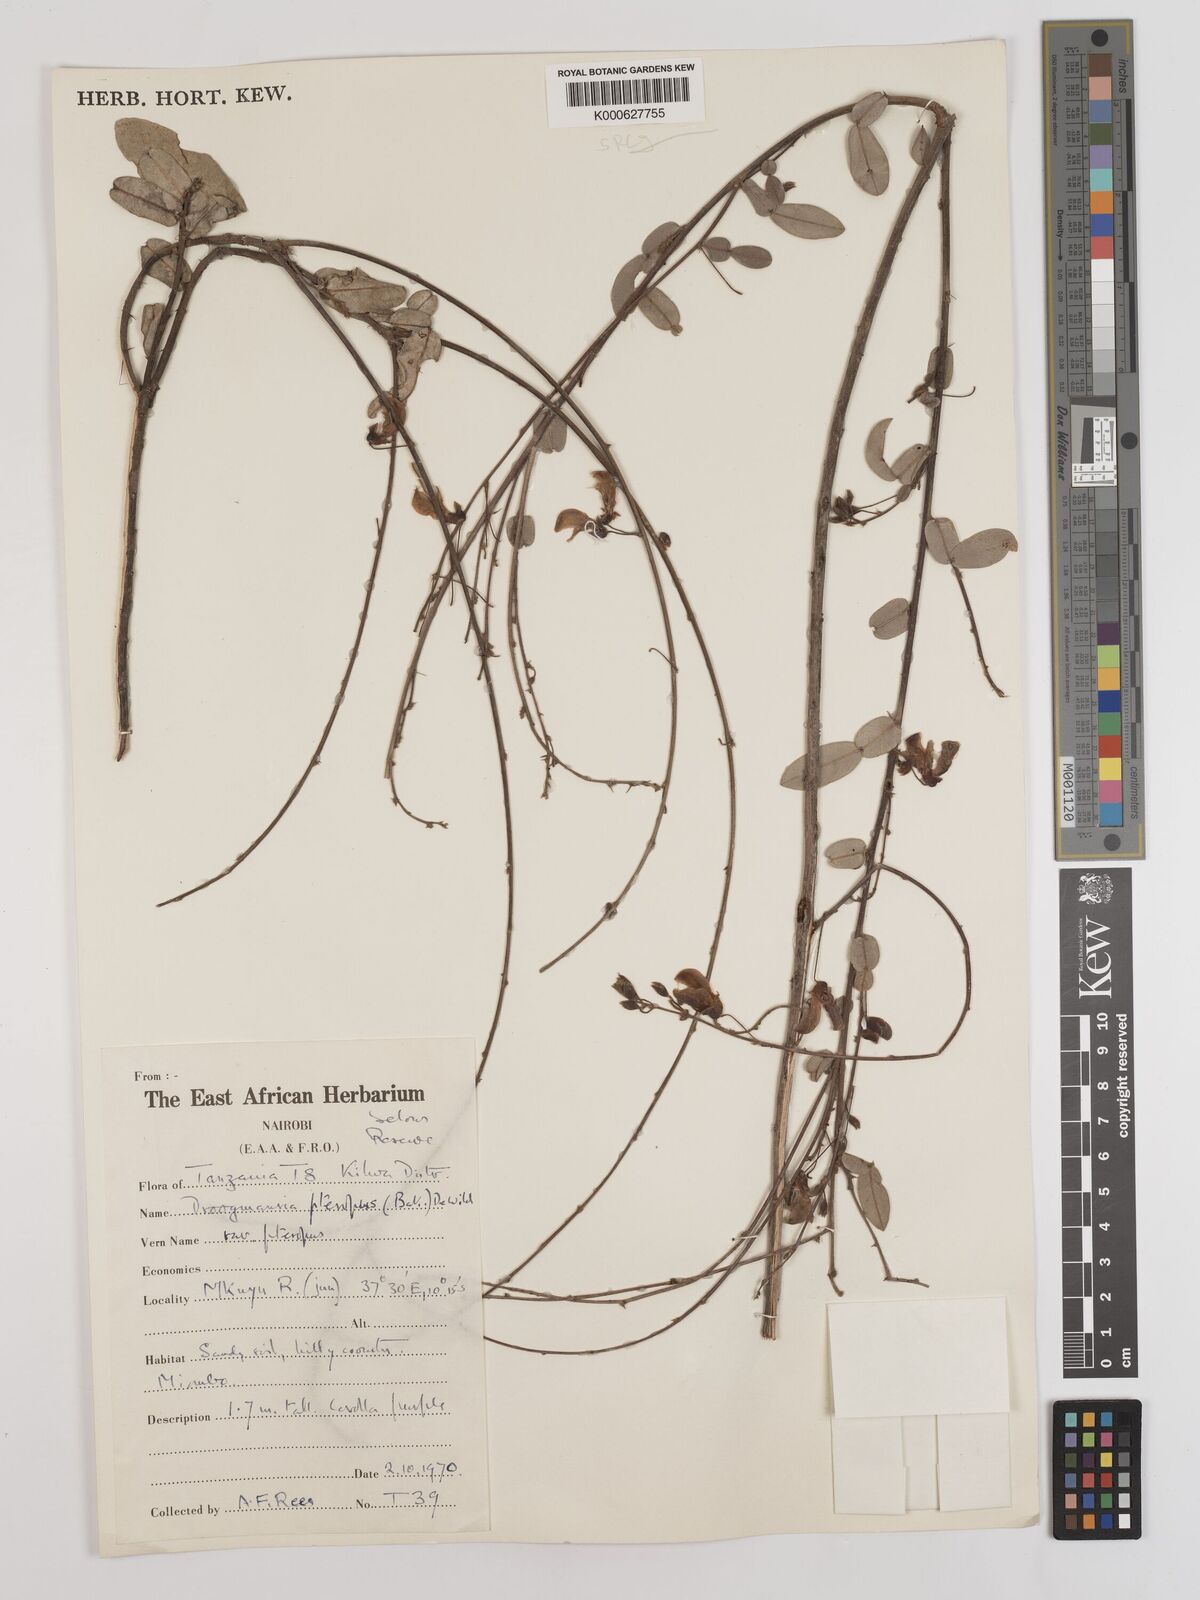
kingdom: Plantae
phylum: Tracheophyta
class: Magnoliopsida
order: Fabales
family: Fabaceae
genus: Droogmansia
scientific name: Droogmansia
